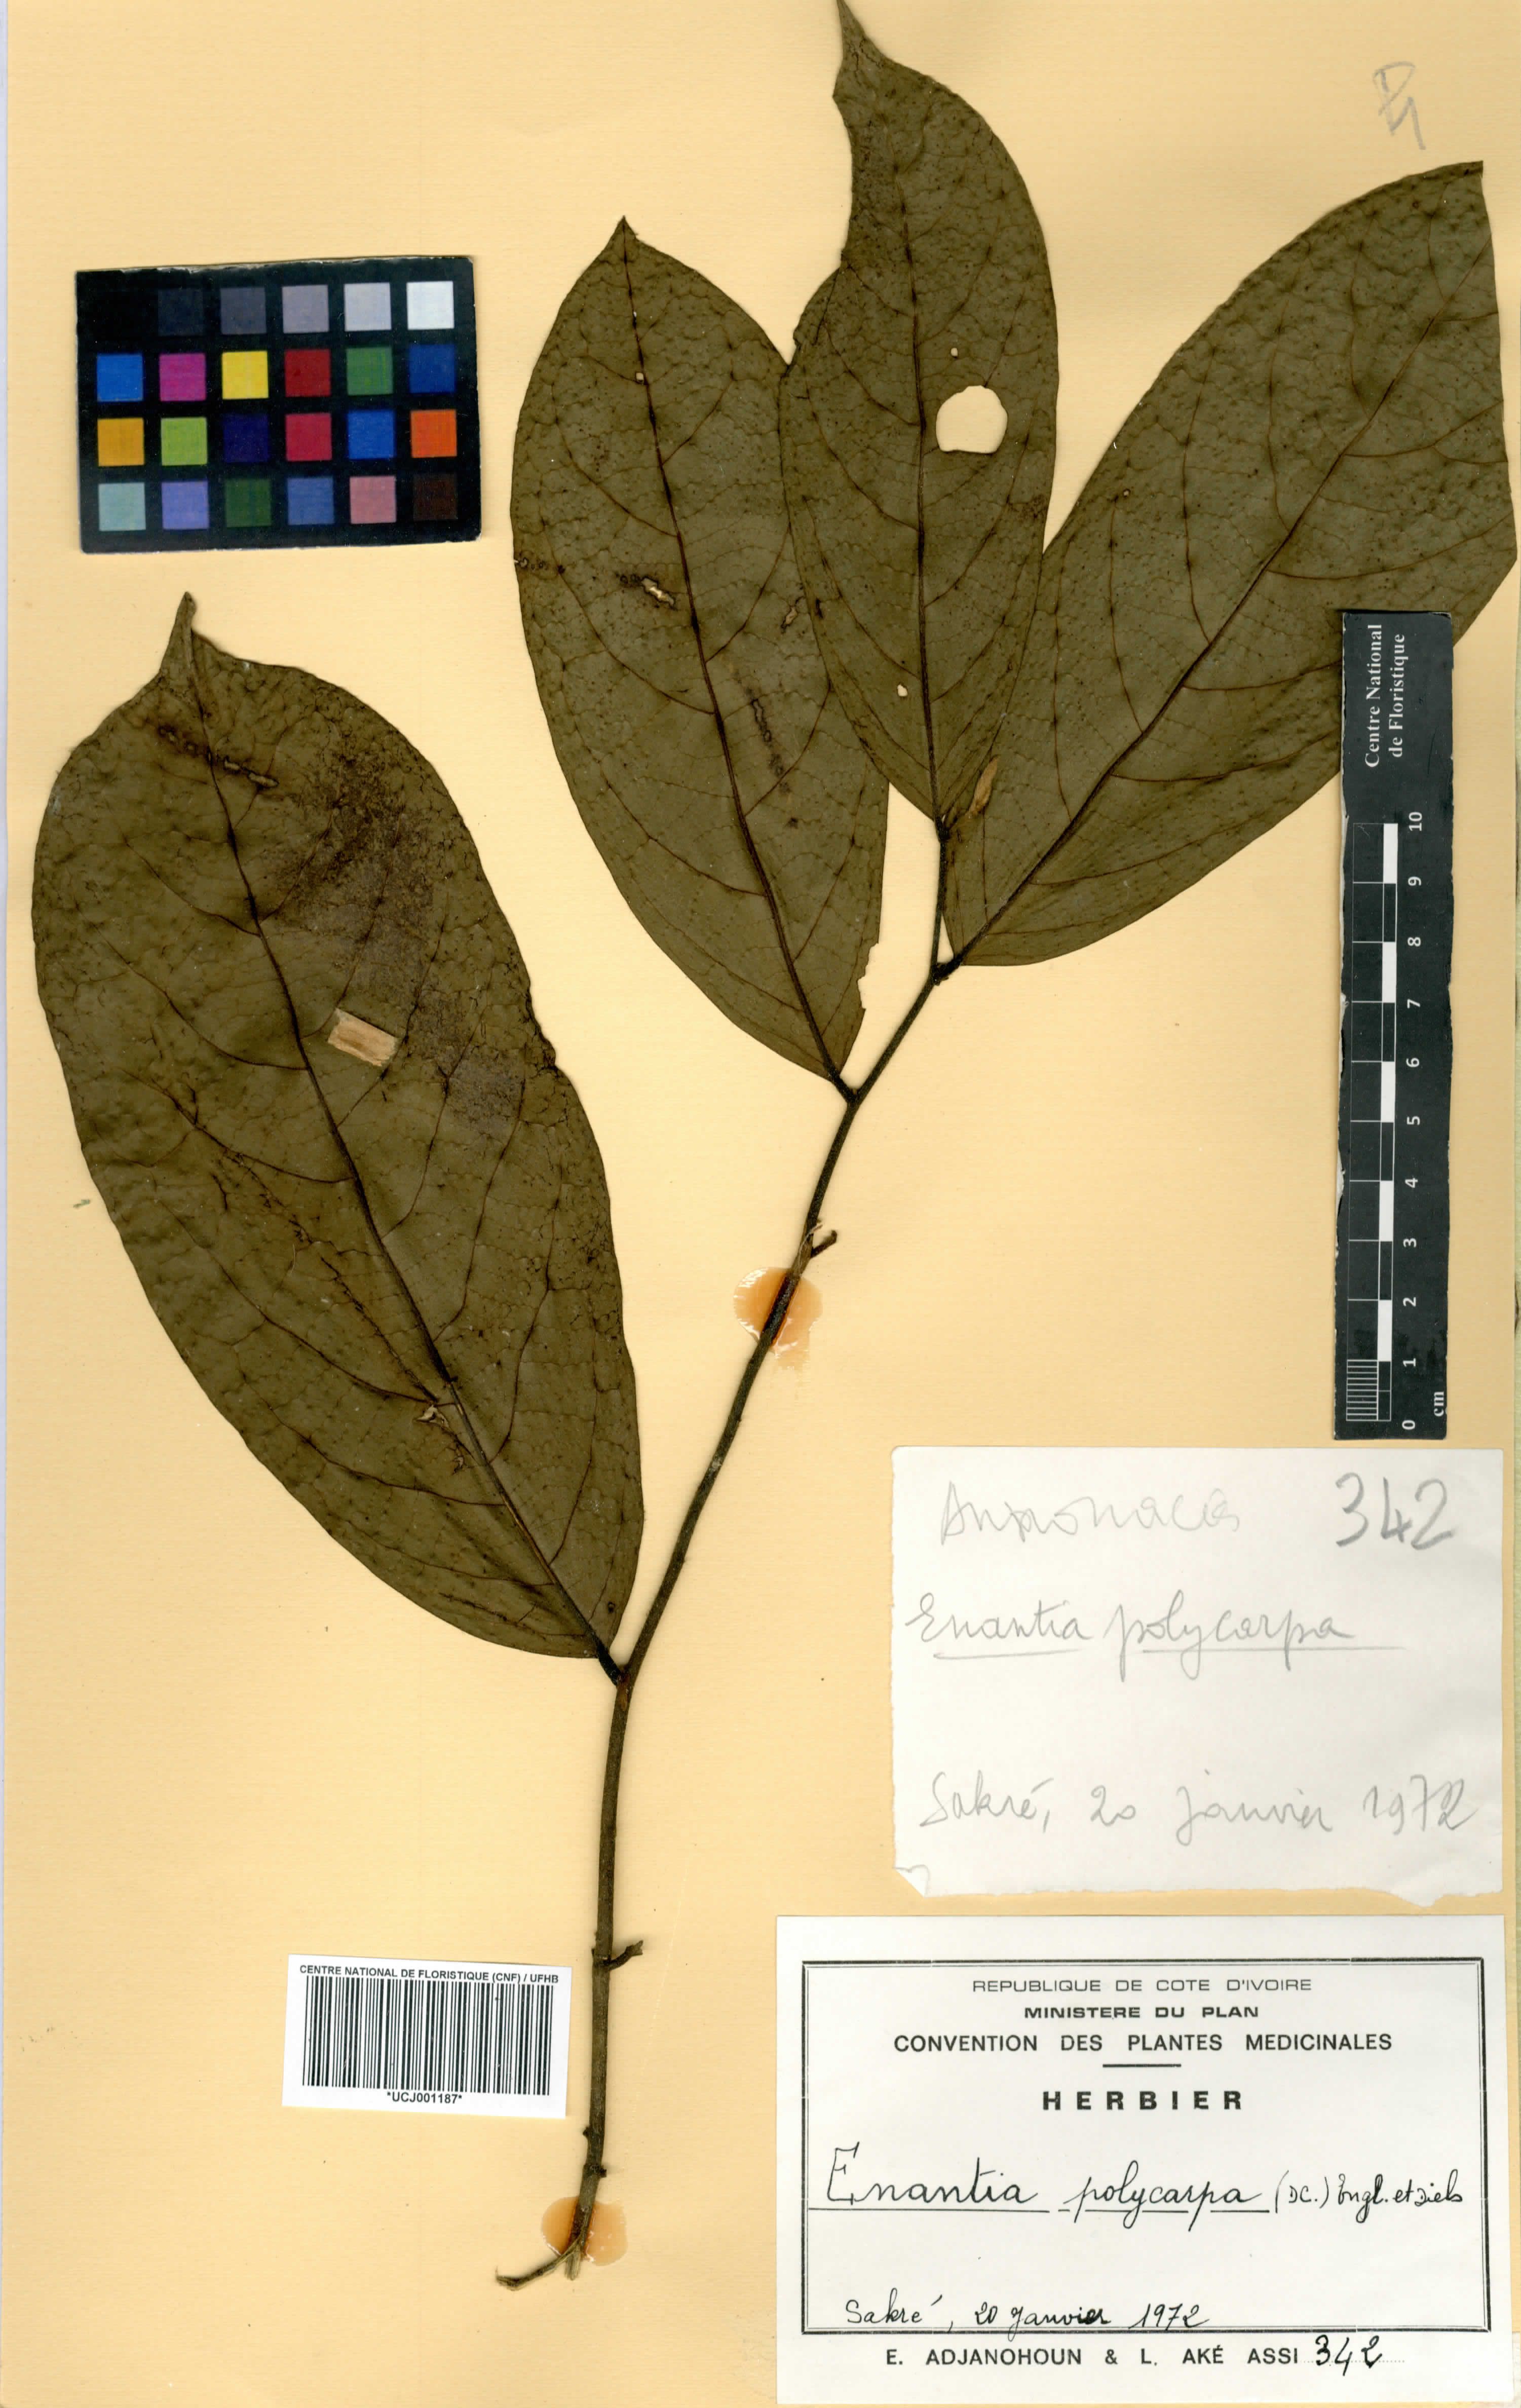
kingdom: Plantae
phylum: Tracheophyta
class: Magnoliopsida
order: Magnoliales
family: Annonaceae
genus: Annickia
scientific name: Annickia polycarpa
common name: African yellowwood
